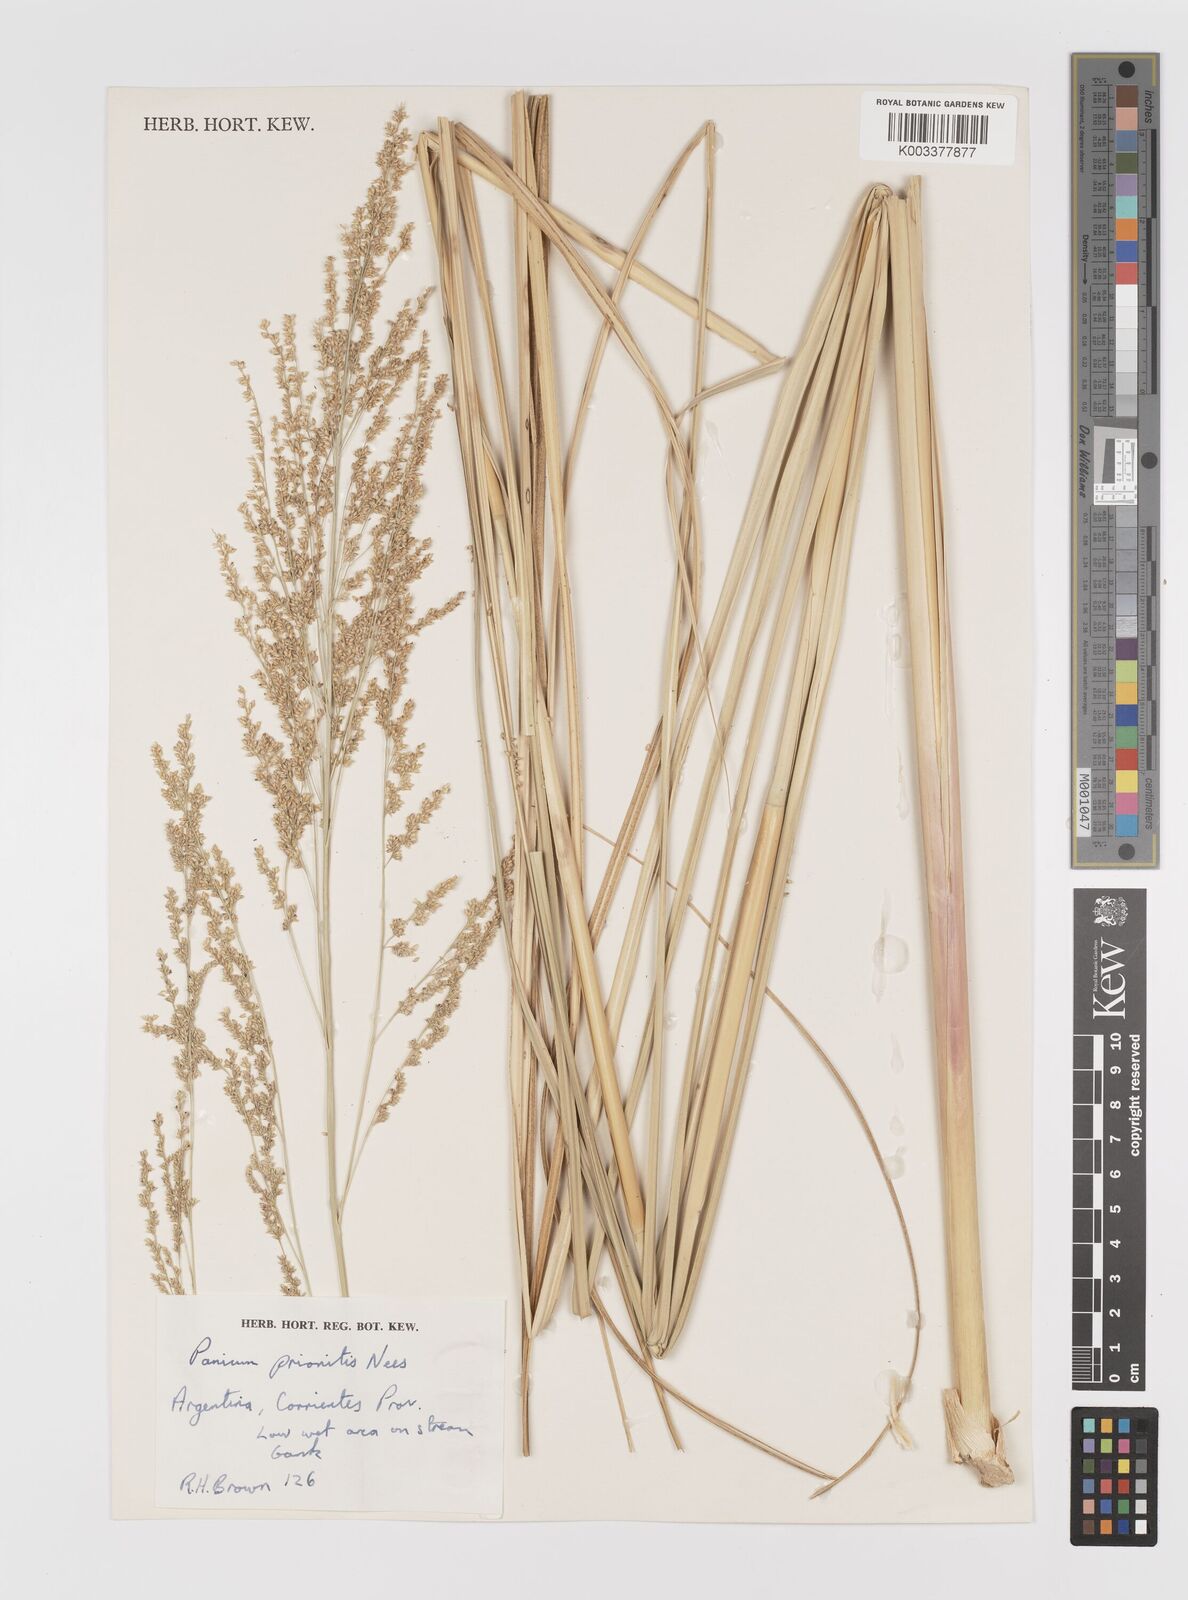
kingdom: Plantae
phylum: Tracheophyta
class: Liliopsida
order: Poales
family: Poaceae
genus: Coleataenia
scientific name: Coleataenia prionitis
